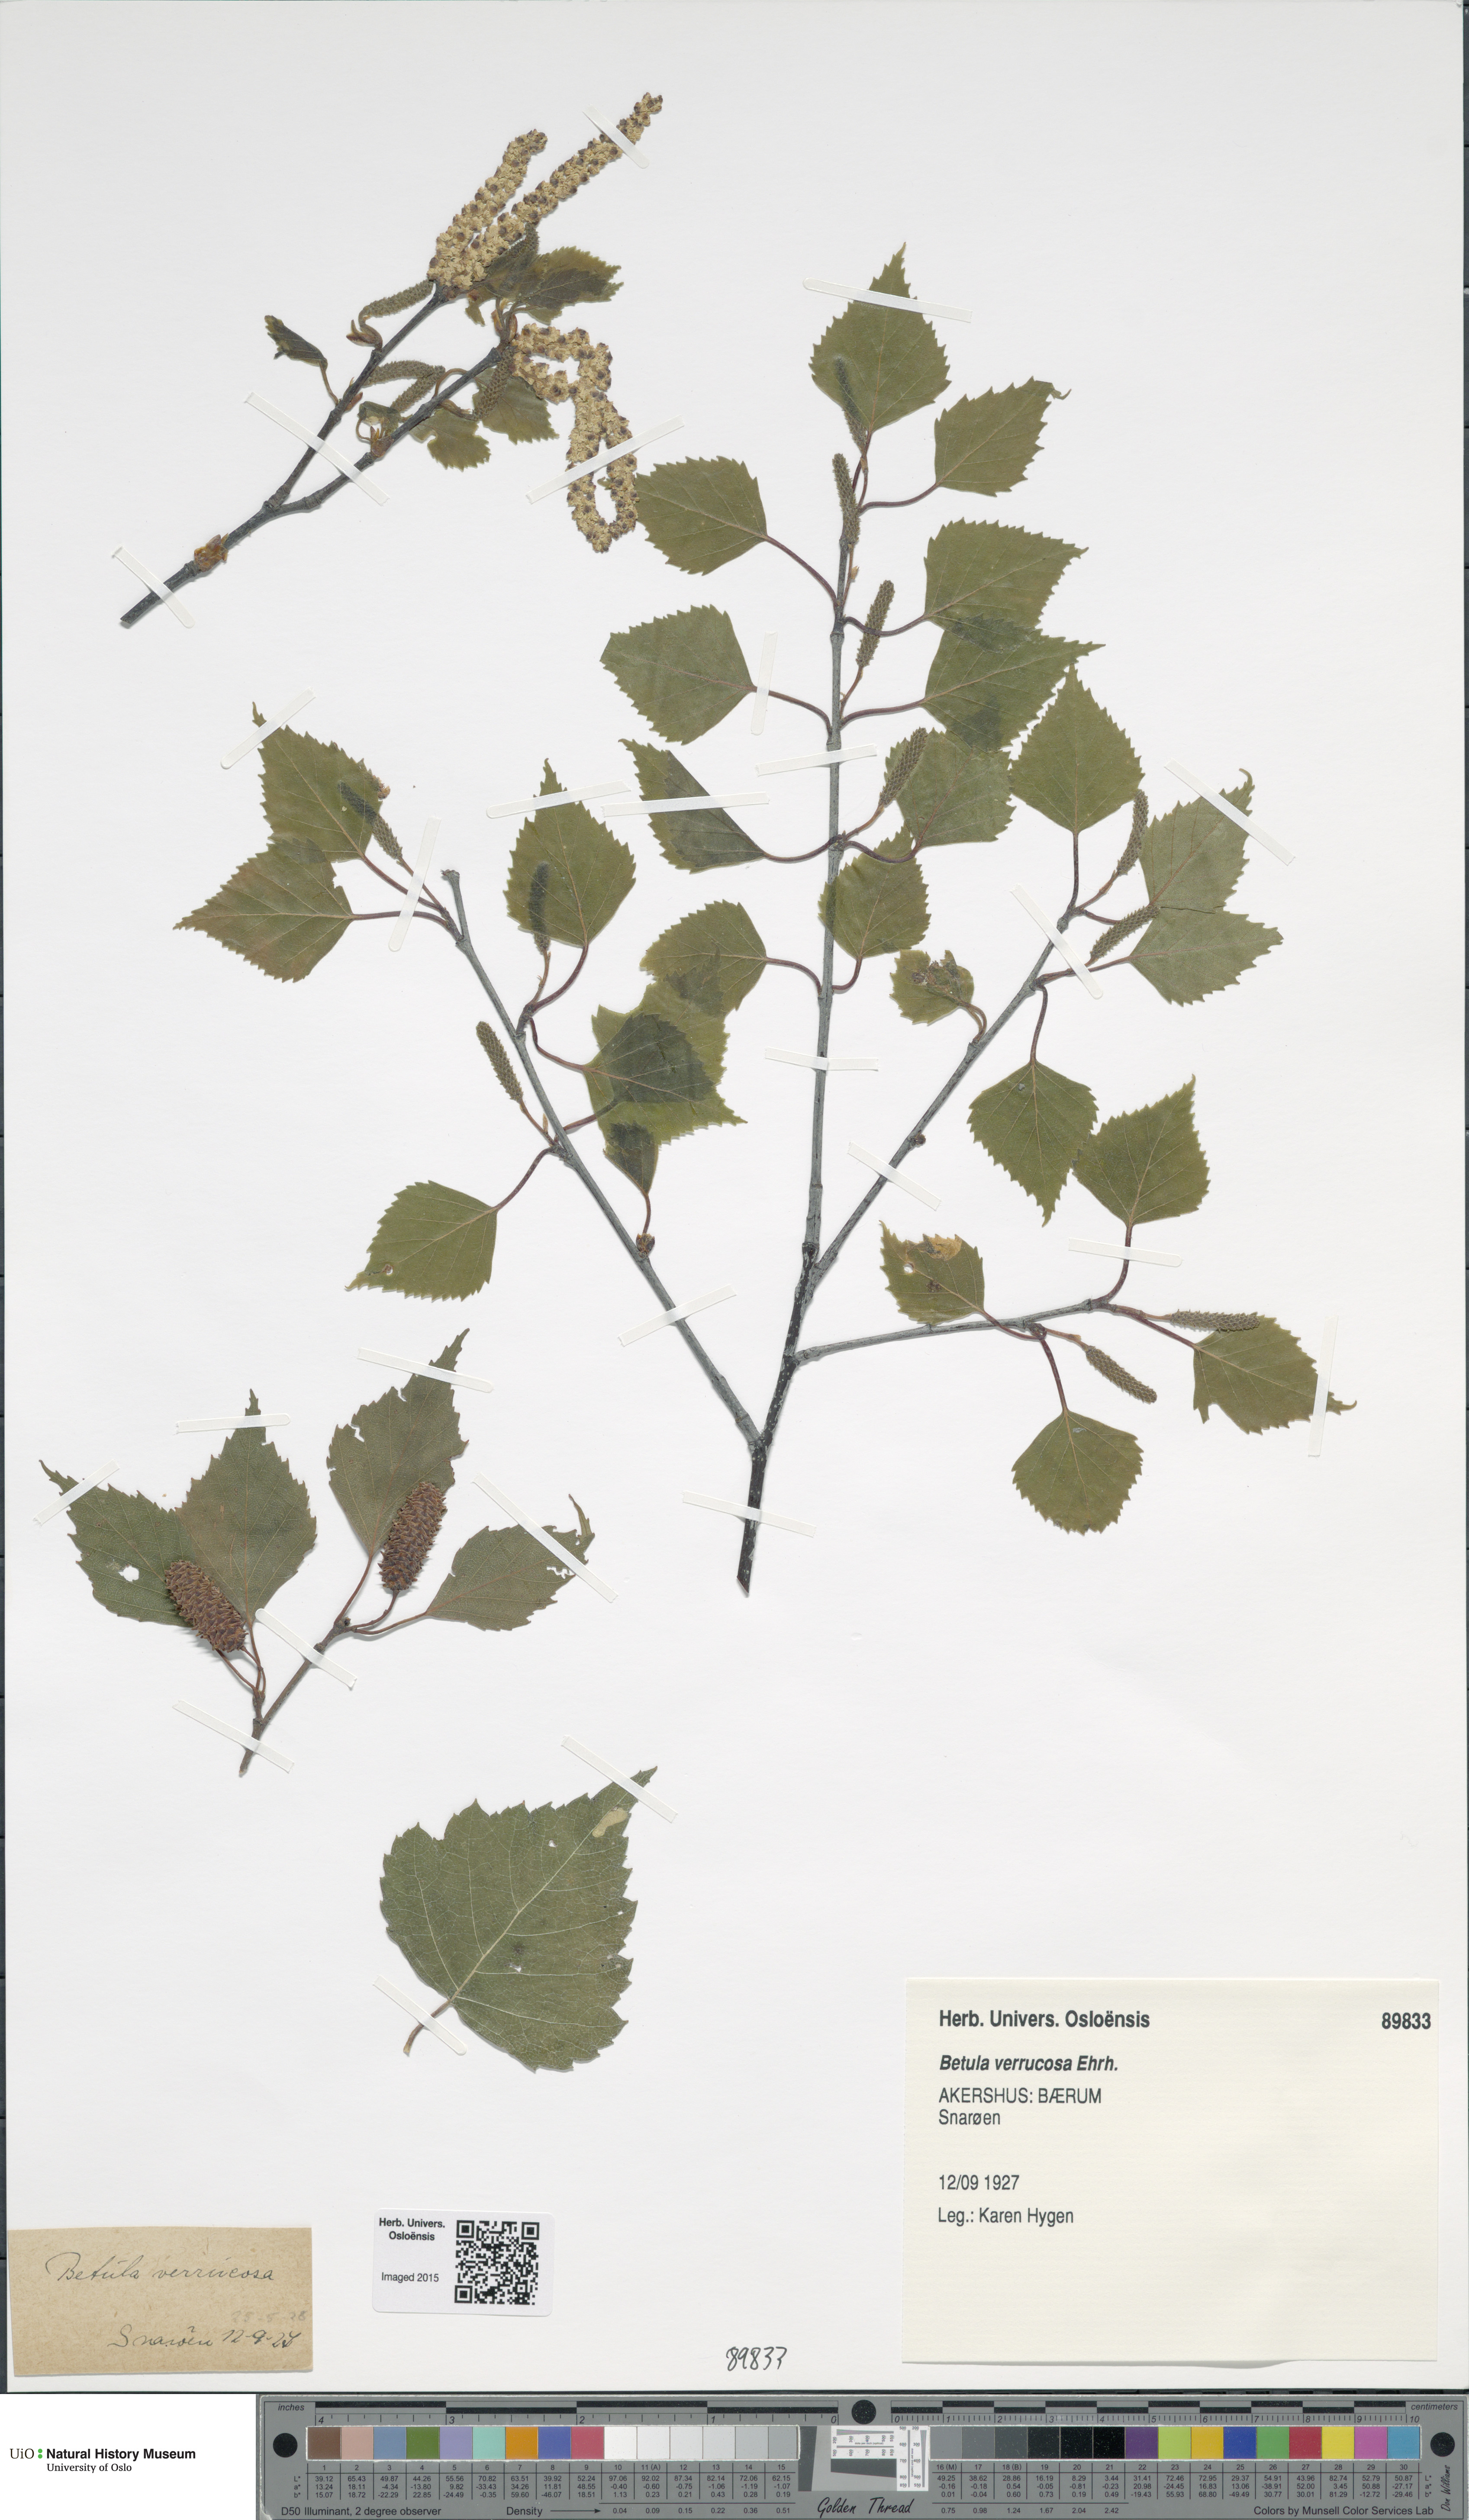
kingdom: Plantae
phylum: Tracheophyta
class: Magnoliopsida
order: Fagales
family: Betulaceae
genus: Betula
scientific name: Betula pendula
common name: Silver birch
